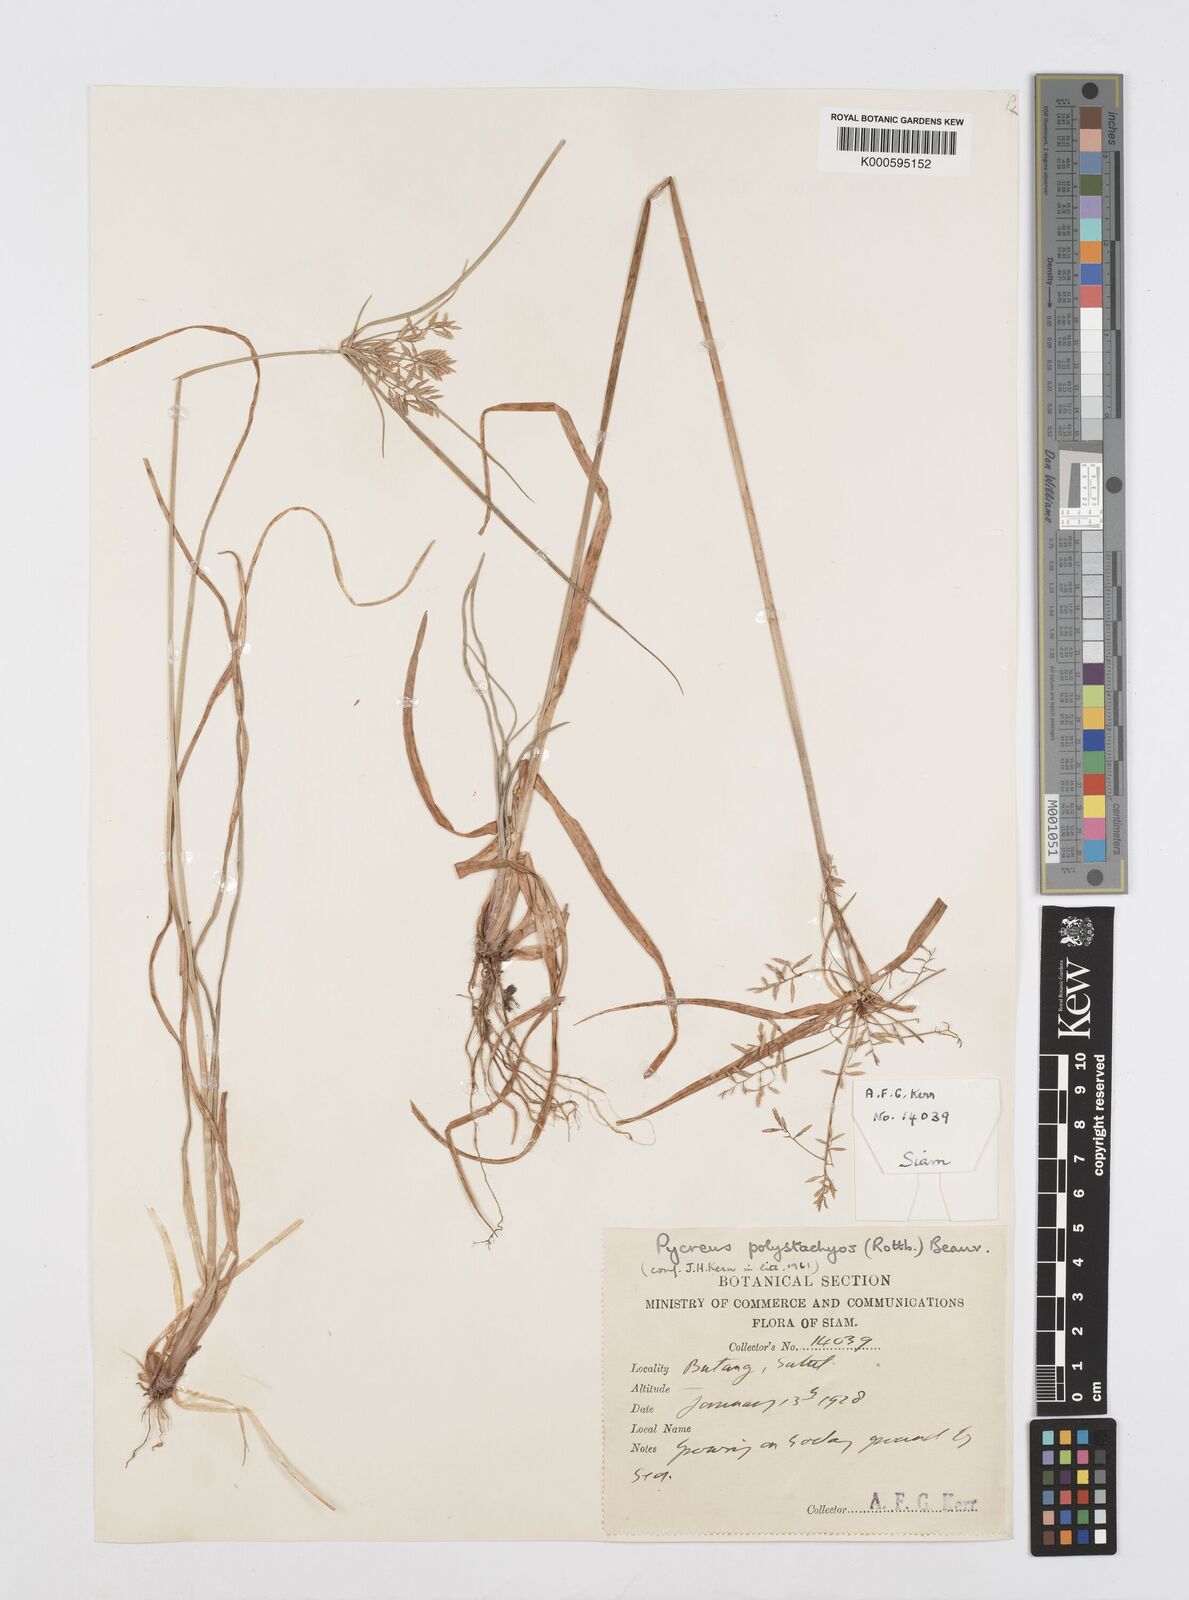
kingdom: Plantae
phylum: Tracheophyta
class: Liliopsida
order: Poales
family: Cyperaceae
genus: Cyperus
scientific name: Cyperus polystachyos
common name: Bunchy flat sedge
